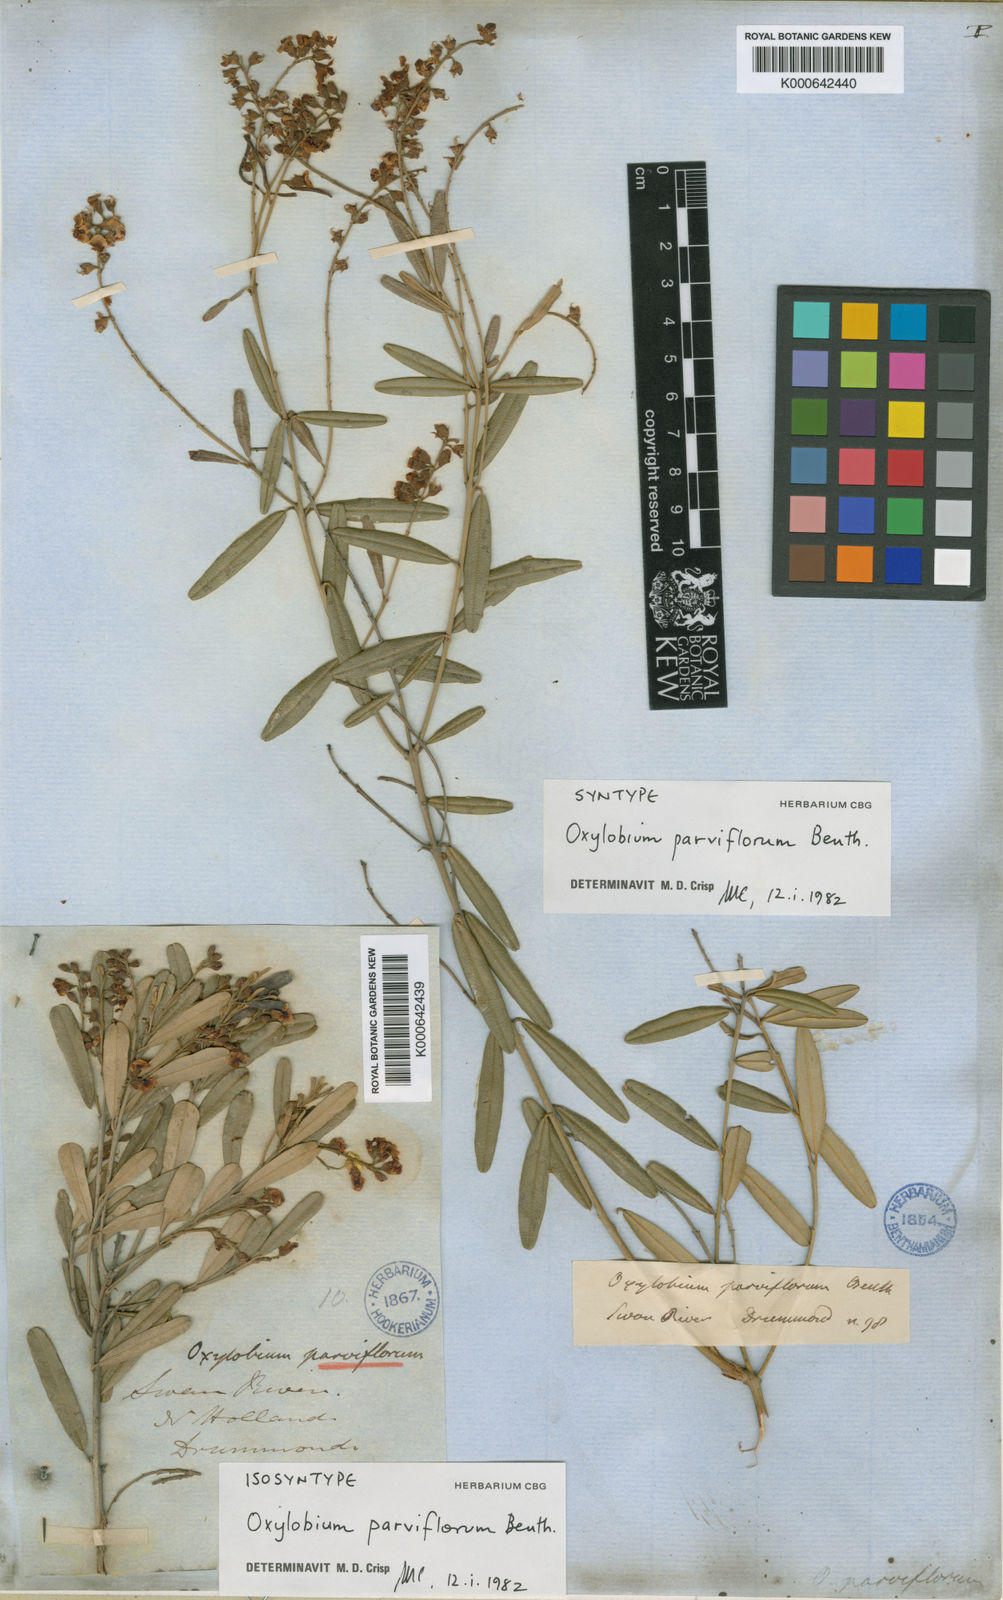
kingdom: Plantae
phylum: Tracheophyta
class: Magnoliopsida
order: Fabales
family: Fabaceae
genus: Gastrolobium
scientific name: Gastrolobium parviflorum
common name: Berry poisonbush
